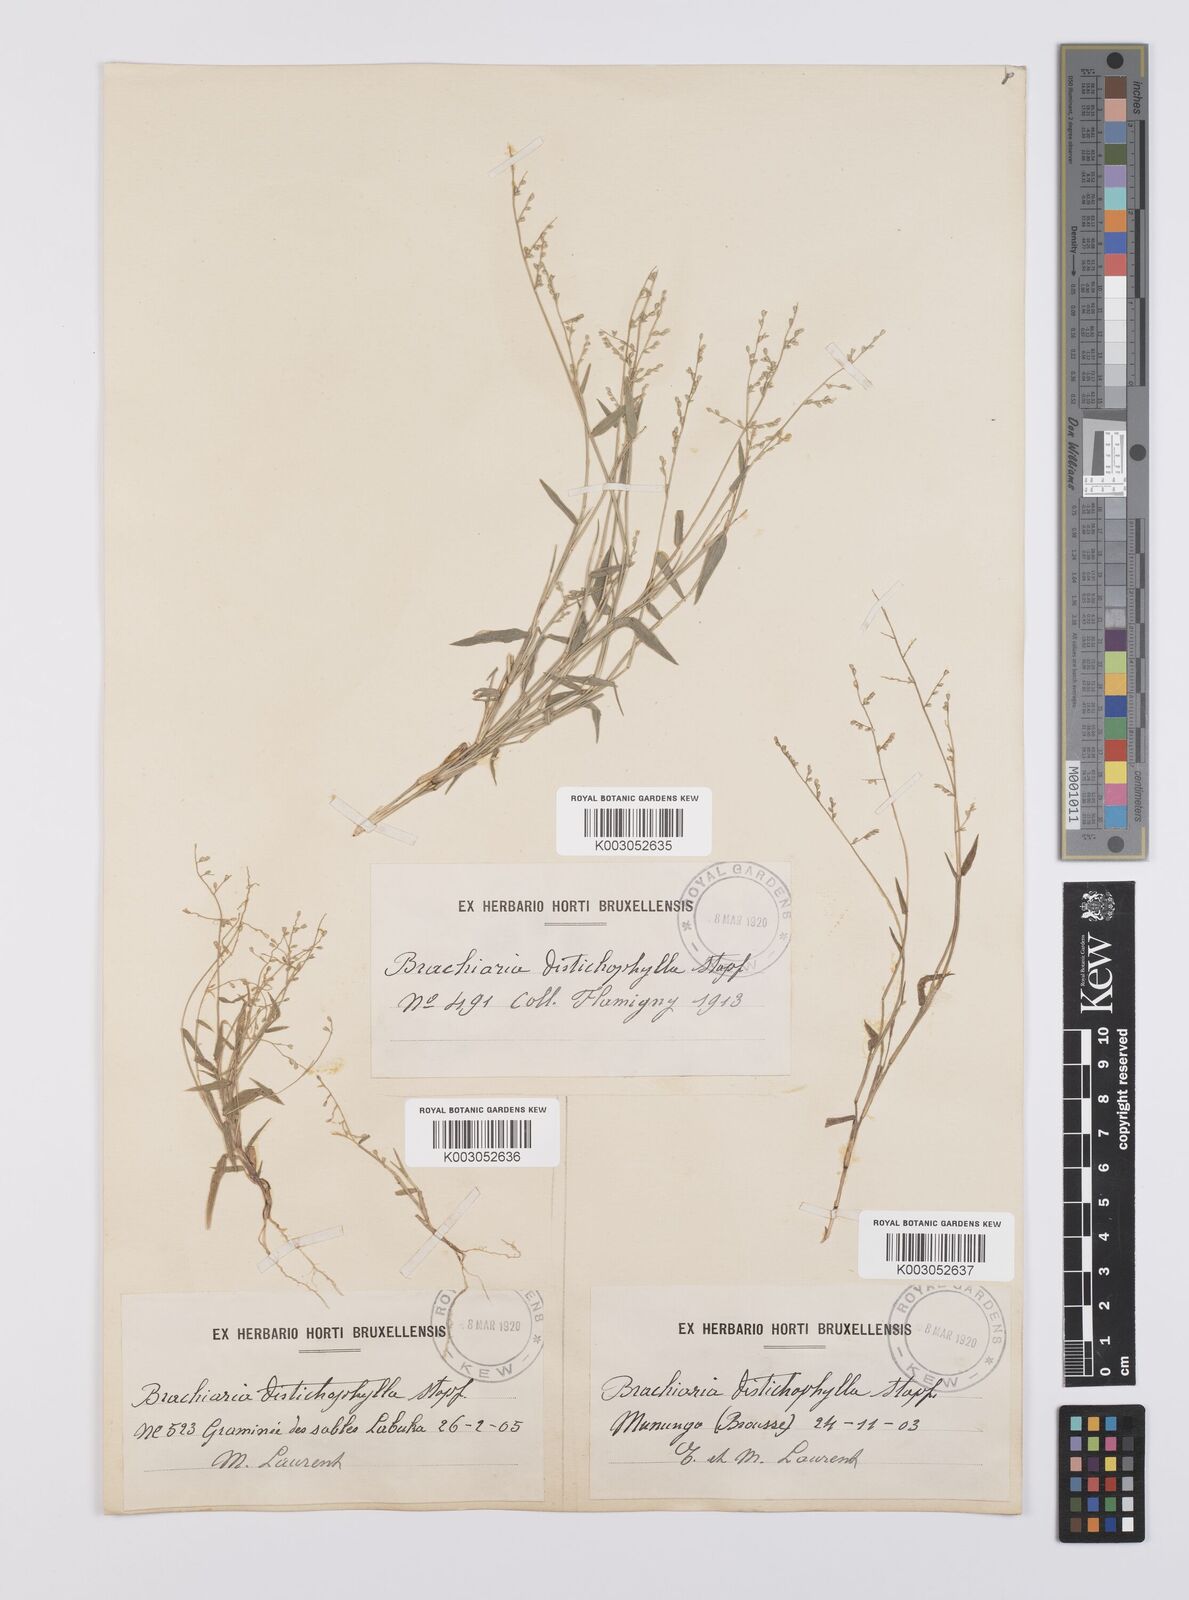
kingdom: Plantae
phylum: Tracheophyta
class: Liliopsida
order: Poales
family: Poaceae
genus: Urochloa
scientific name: Urochloa villosa
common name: Hairy signalgrass
